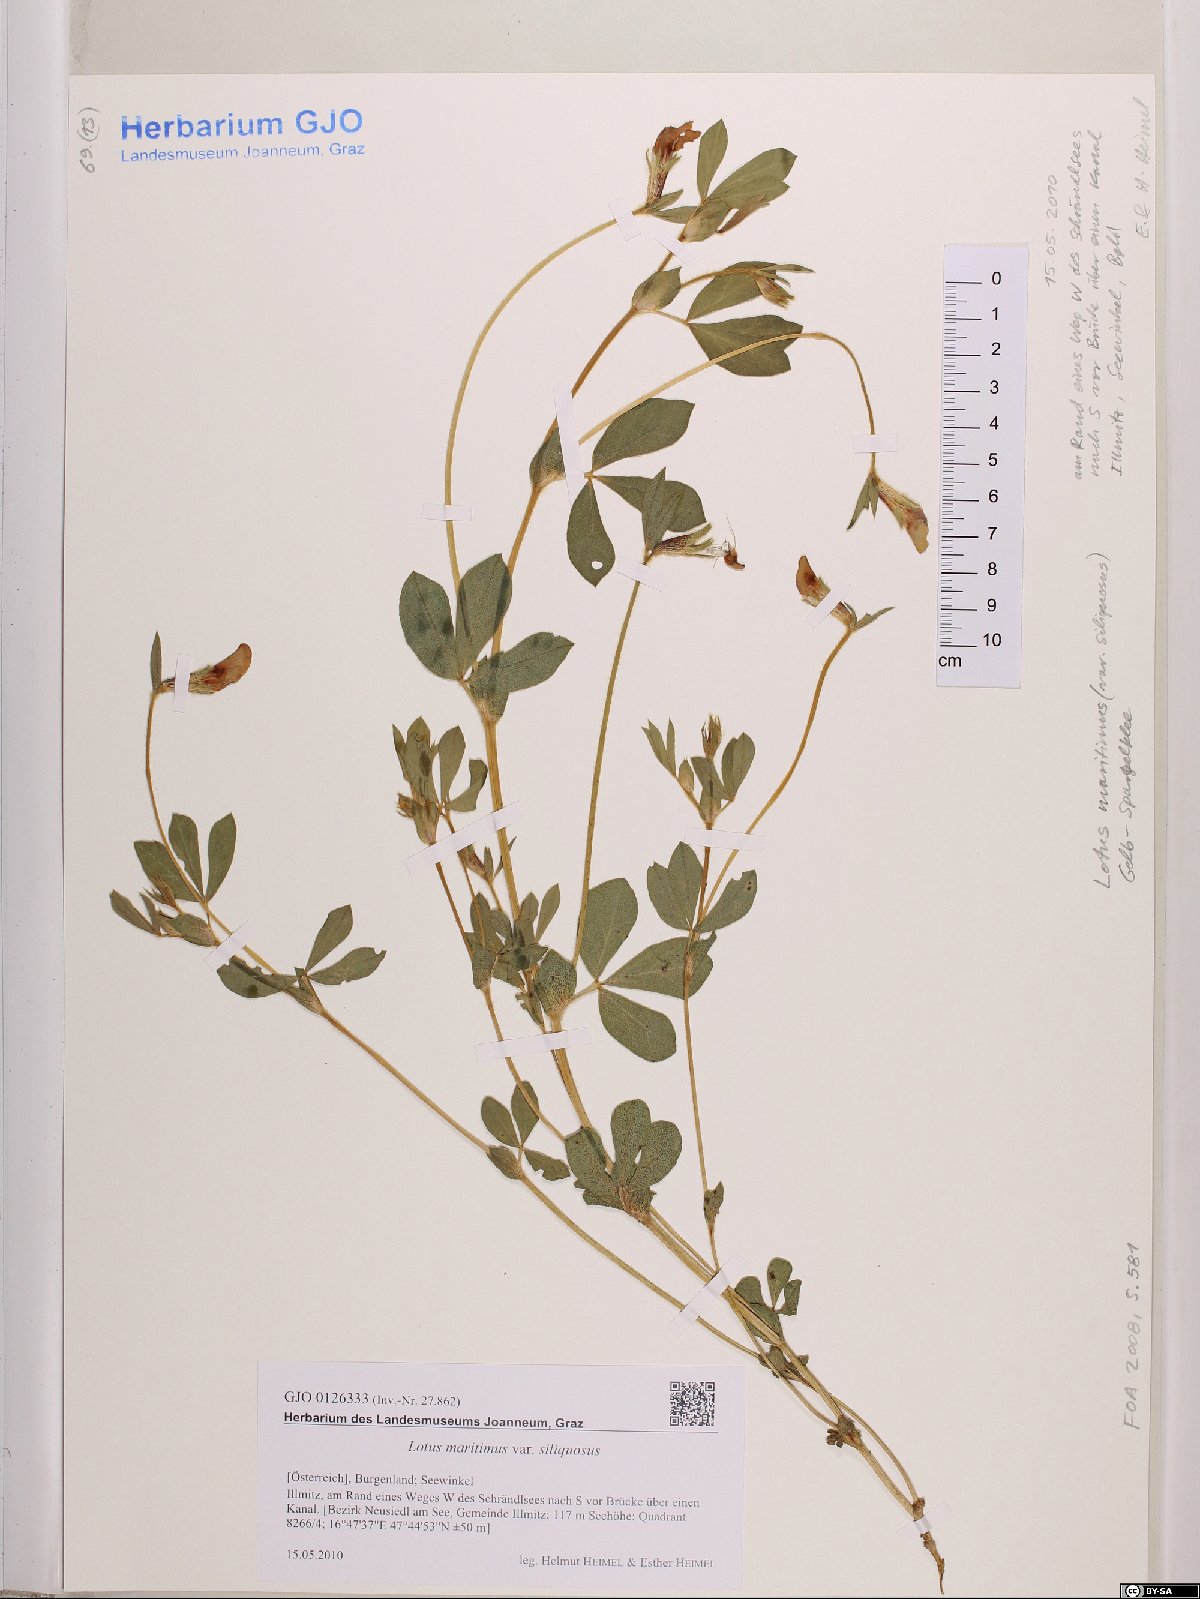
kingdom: Plantae
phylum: Tracheophyta
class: Magnoliopsida
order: Fabales
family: Fabaceae
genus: Lathyrus
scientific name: Lathyrus inconspicuus
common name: Inconspicuous pea
